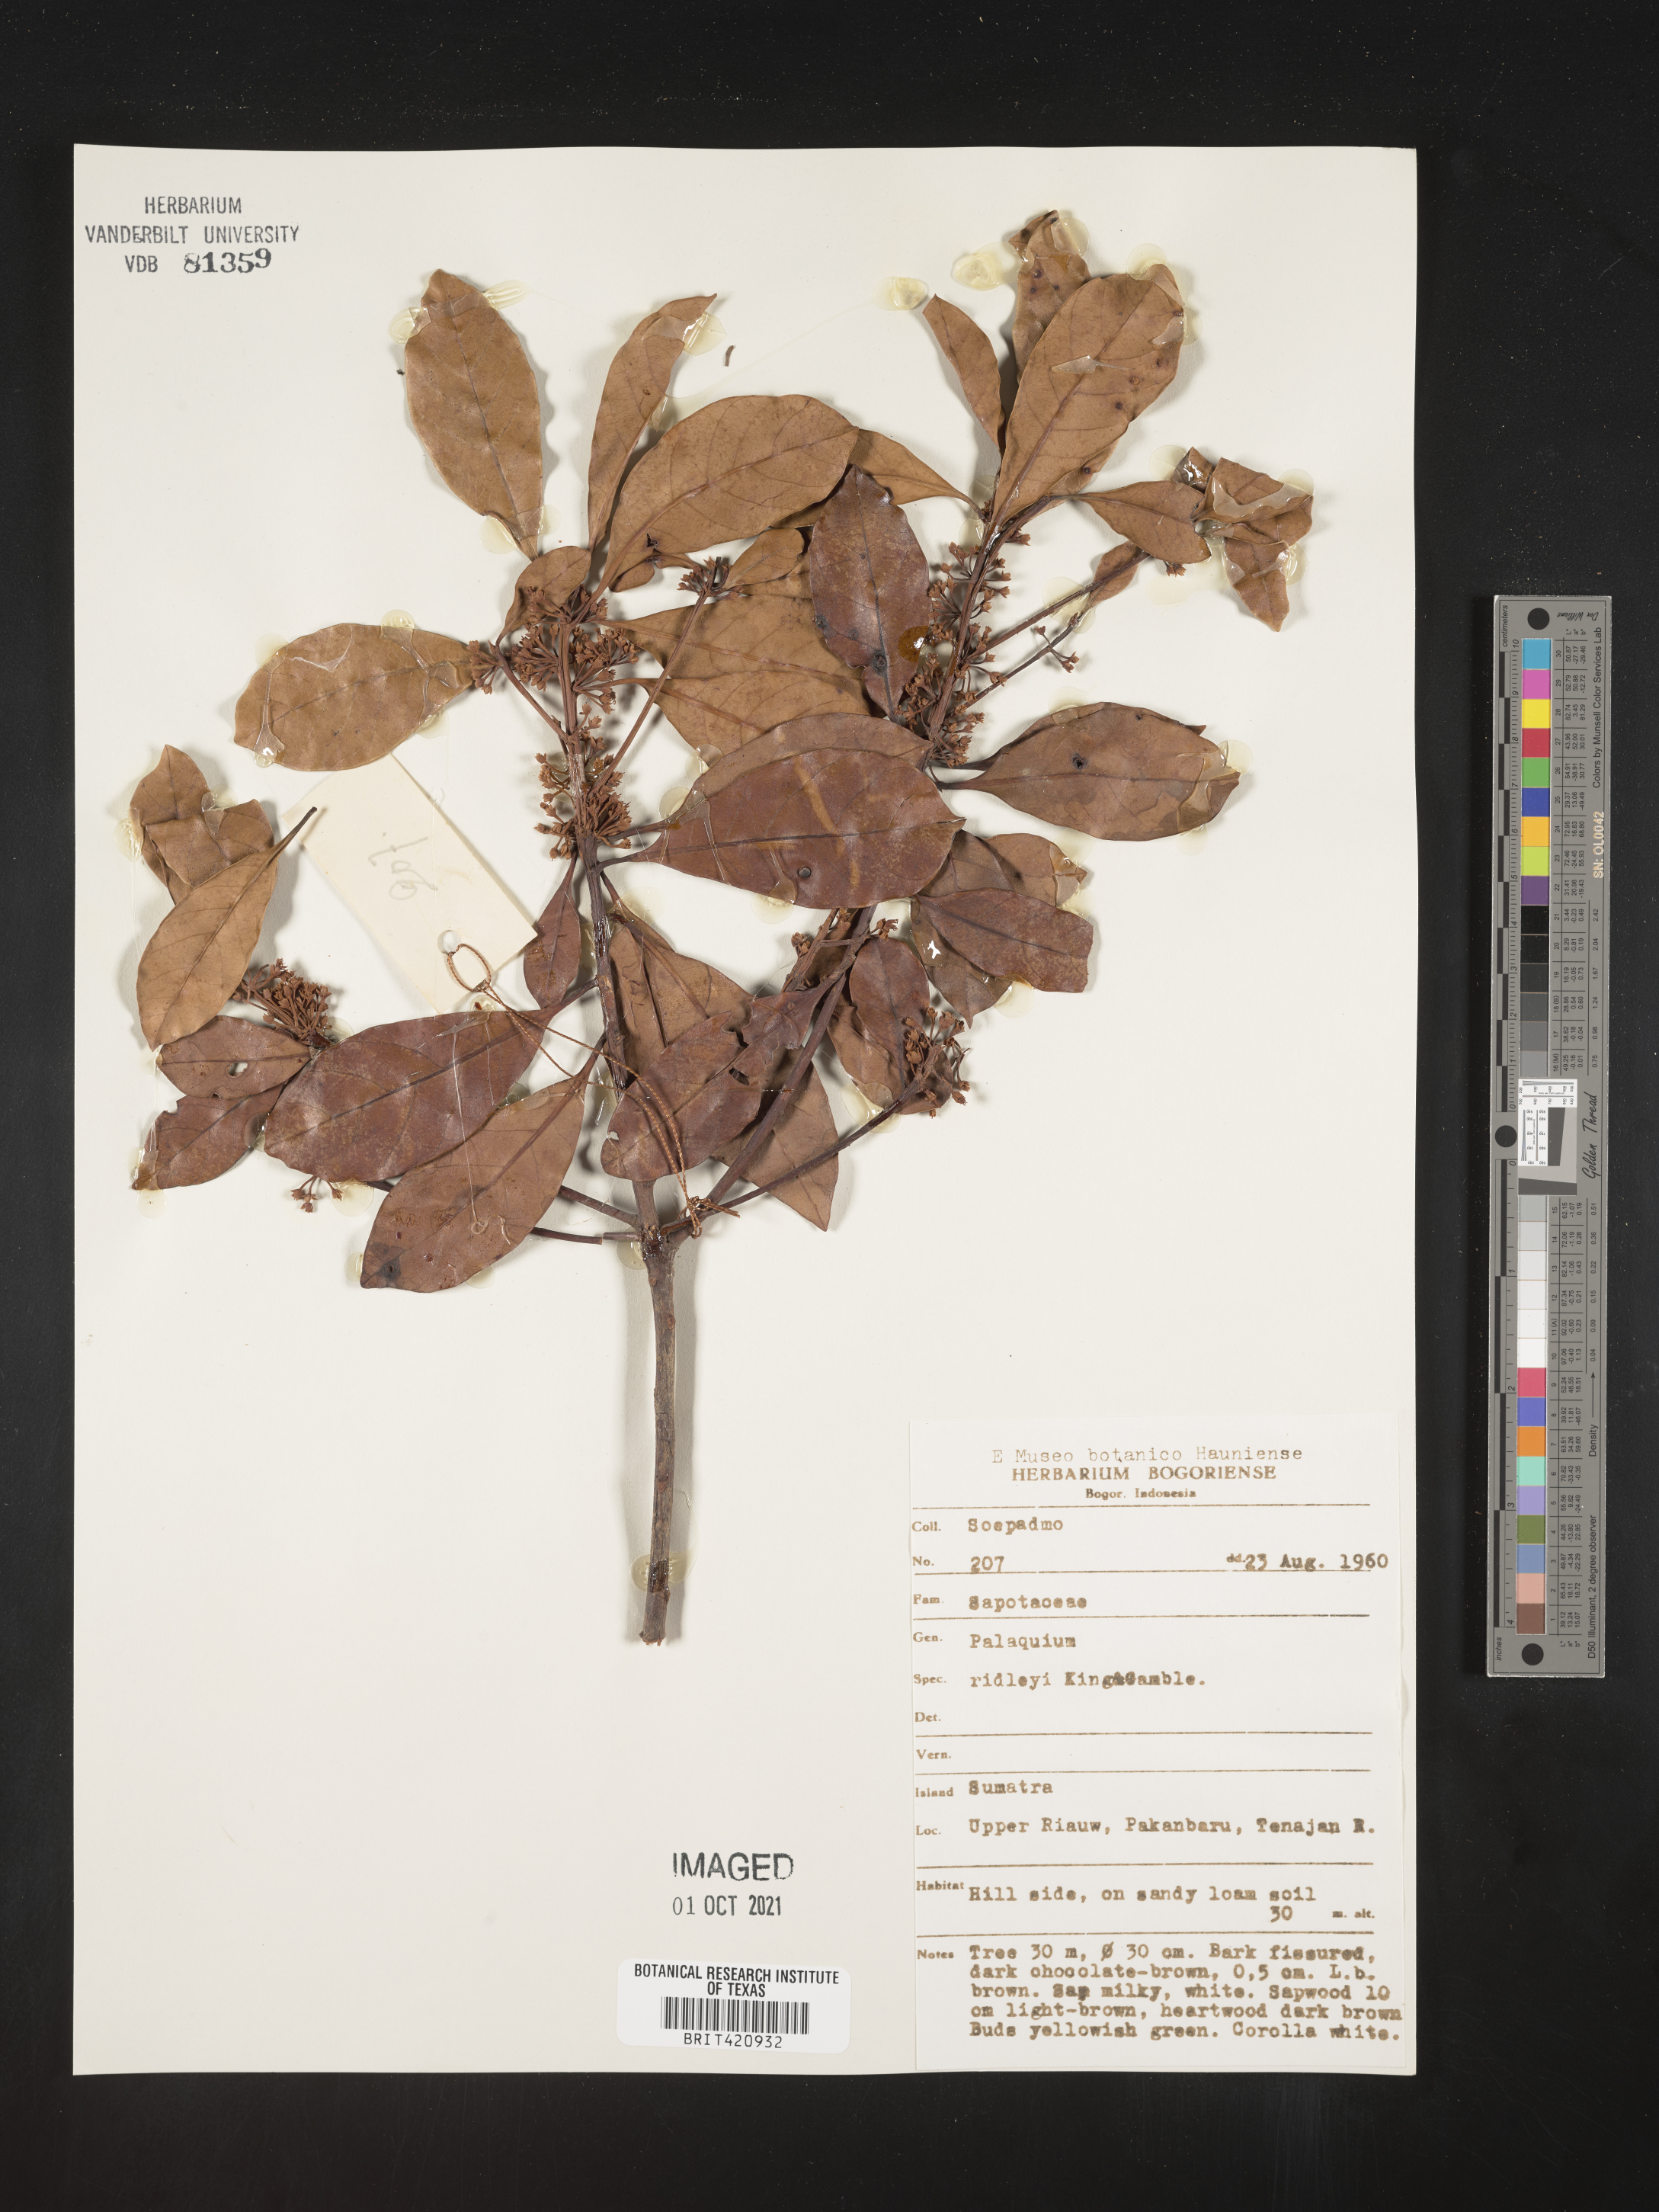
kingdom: Plantae
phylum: Tracheophyta
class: Magnoliopsida
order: Ericales
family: Sapotaceae
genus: Palaquium
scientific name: Palaquium
